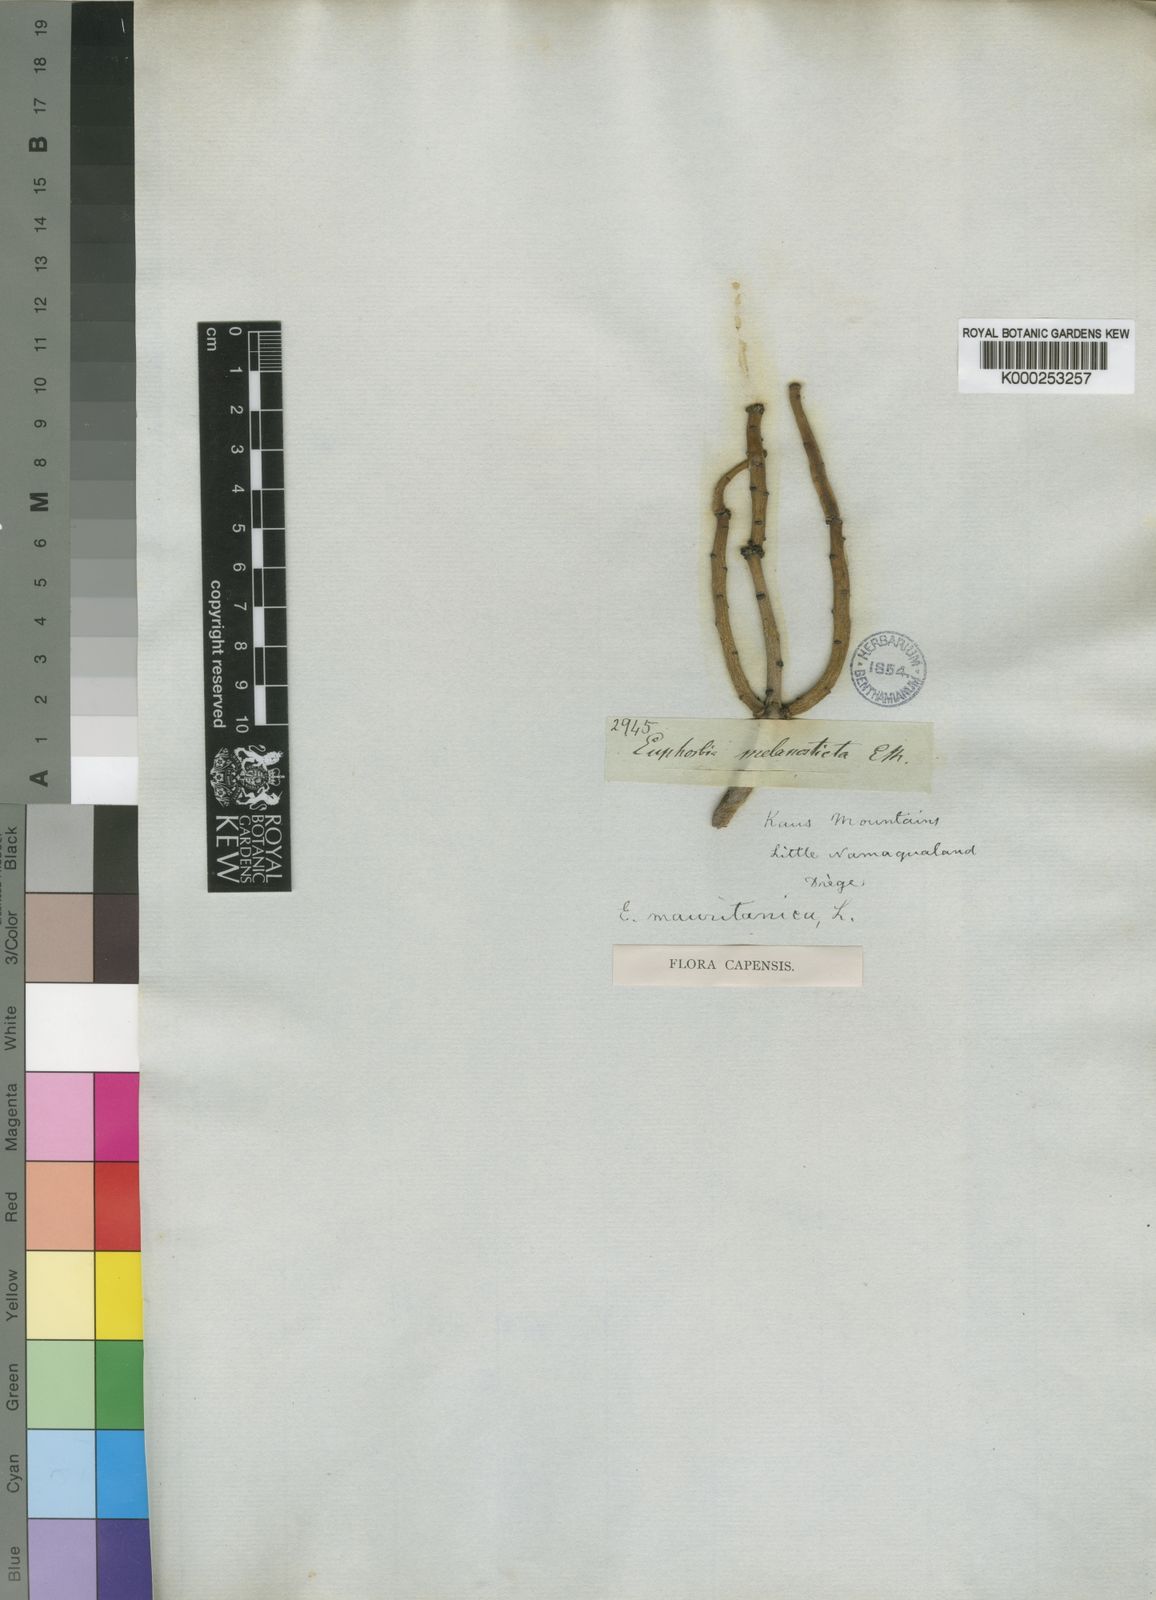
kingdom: Plantae
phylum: Tracheophyta
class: Magnoliopsida
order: Malpighiales
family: Euphorbiaceae
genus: Euphorbia
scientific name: Euphorbia mauritanica
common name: Jackal's-food
